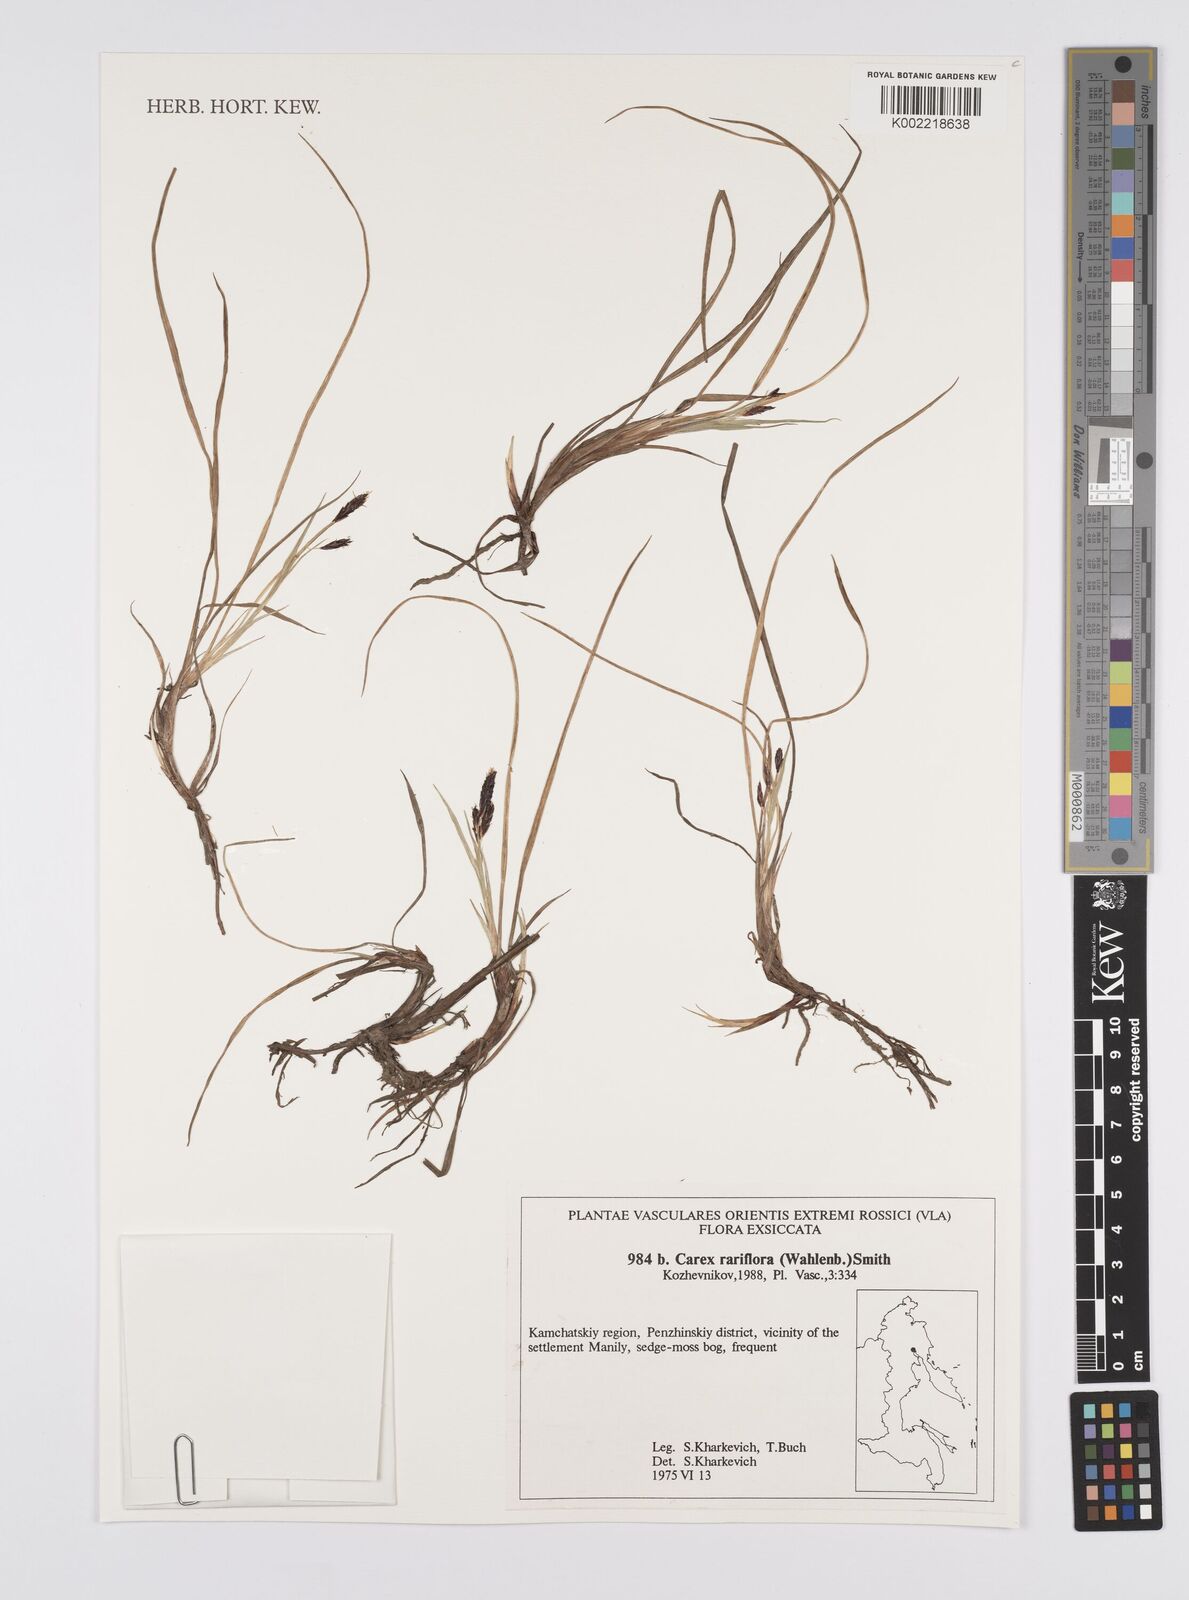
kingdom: Plantae
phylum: Tracheophyta
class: Liliopsida
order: Poales
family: Cyperaceae
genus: Carex
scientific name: Carex rariflora
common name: Loose-flowered alpine sedge
